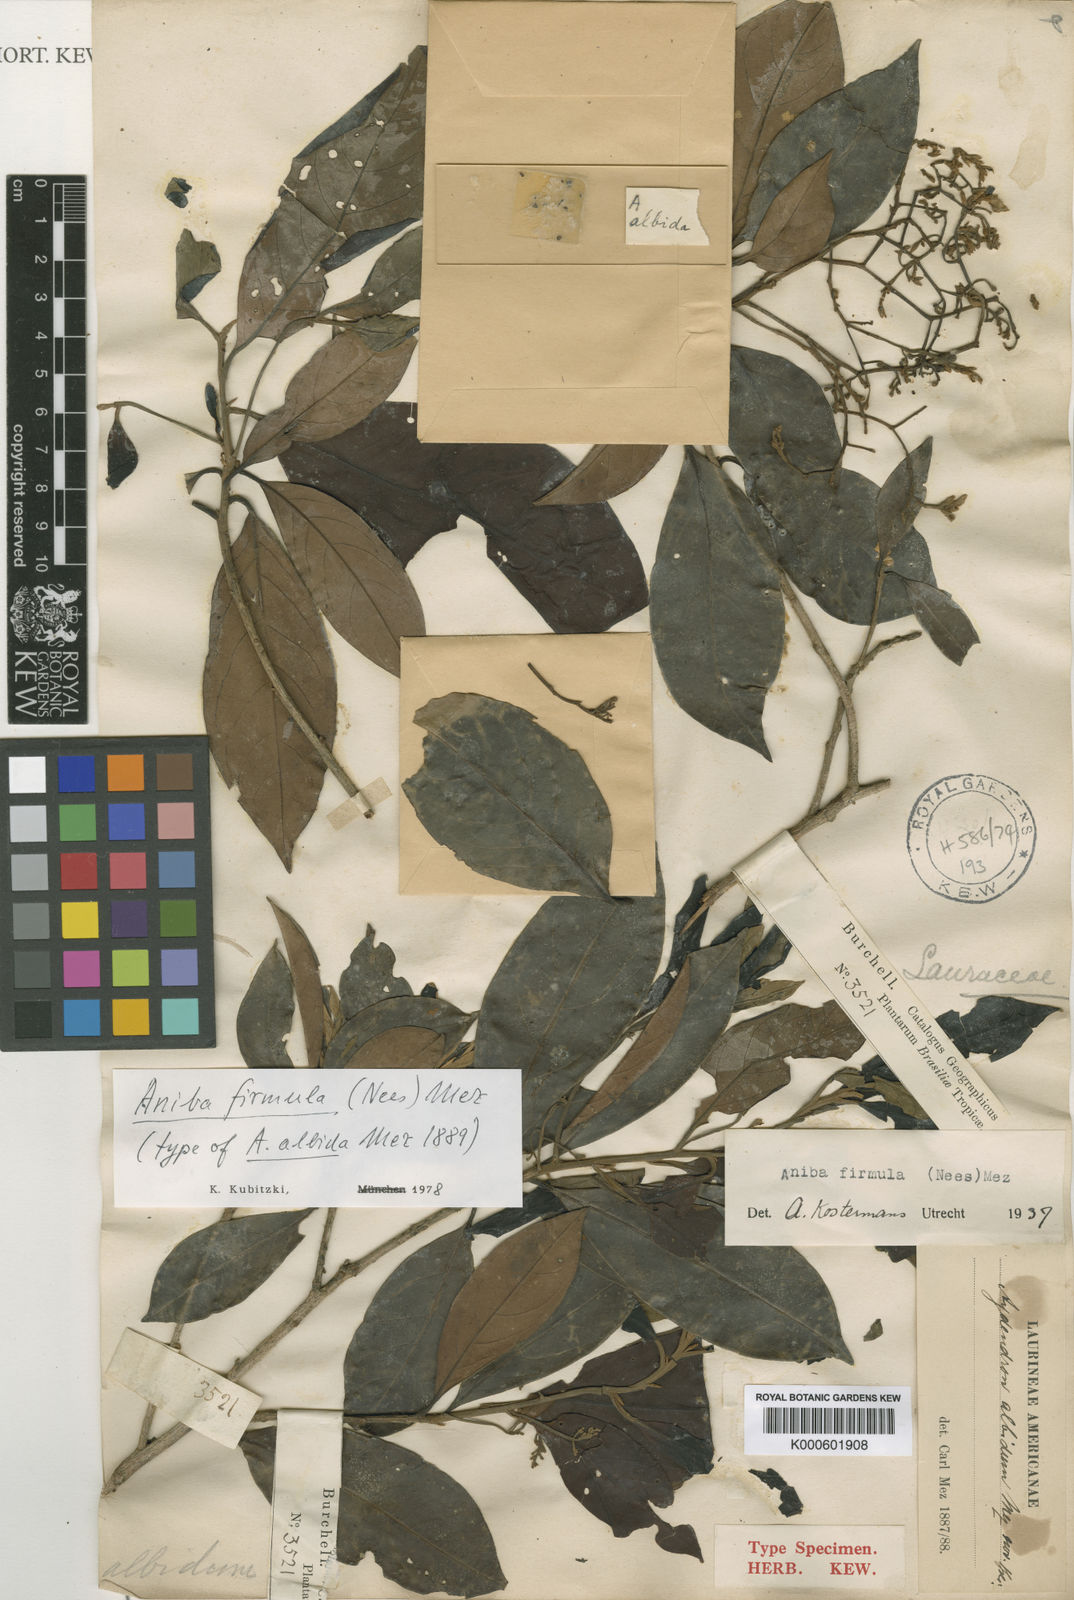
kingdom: Plantae
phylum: Tracheophyta
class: Magnoliopsida
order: Laurales
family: Lauraceae
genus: Aniba
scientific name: Aniba firmula
